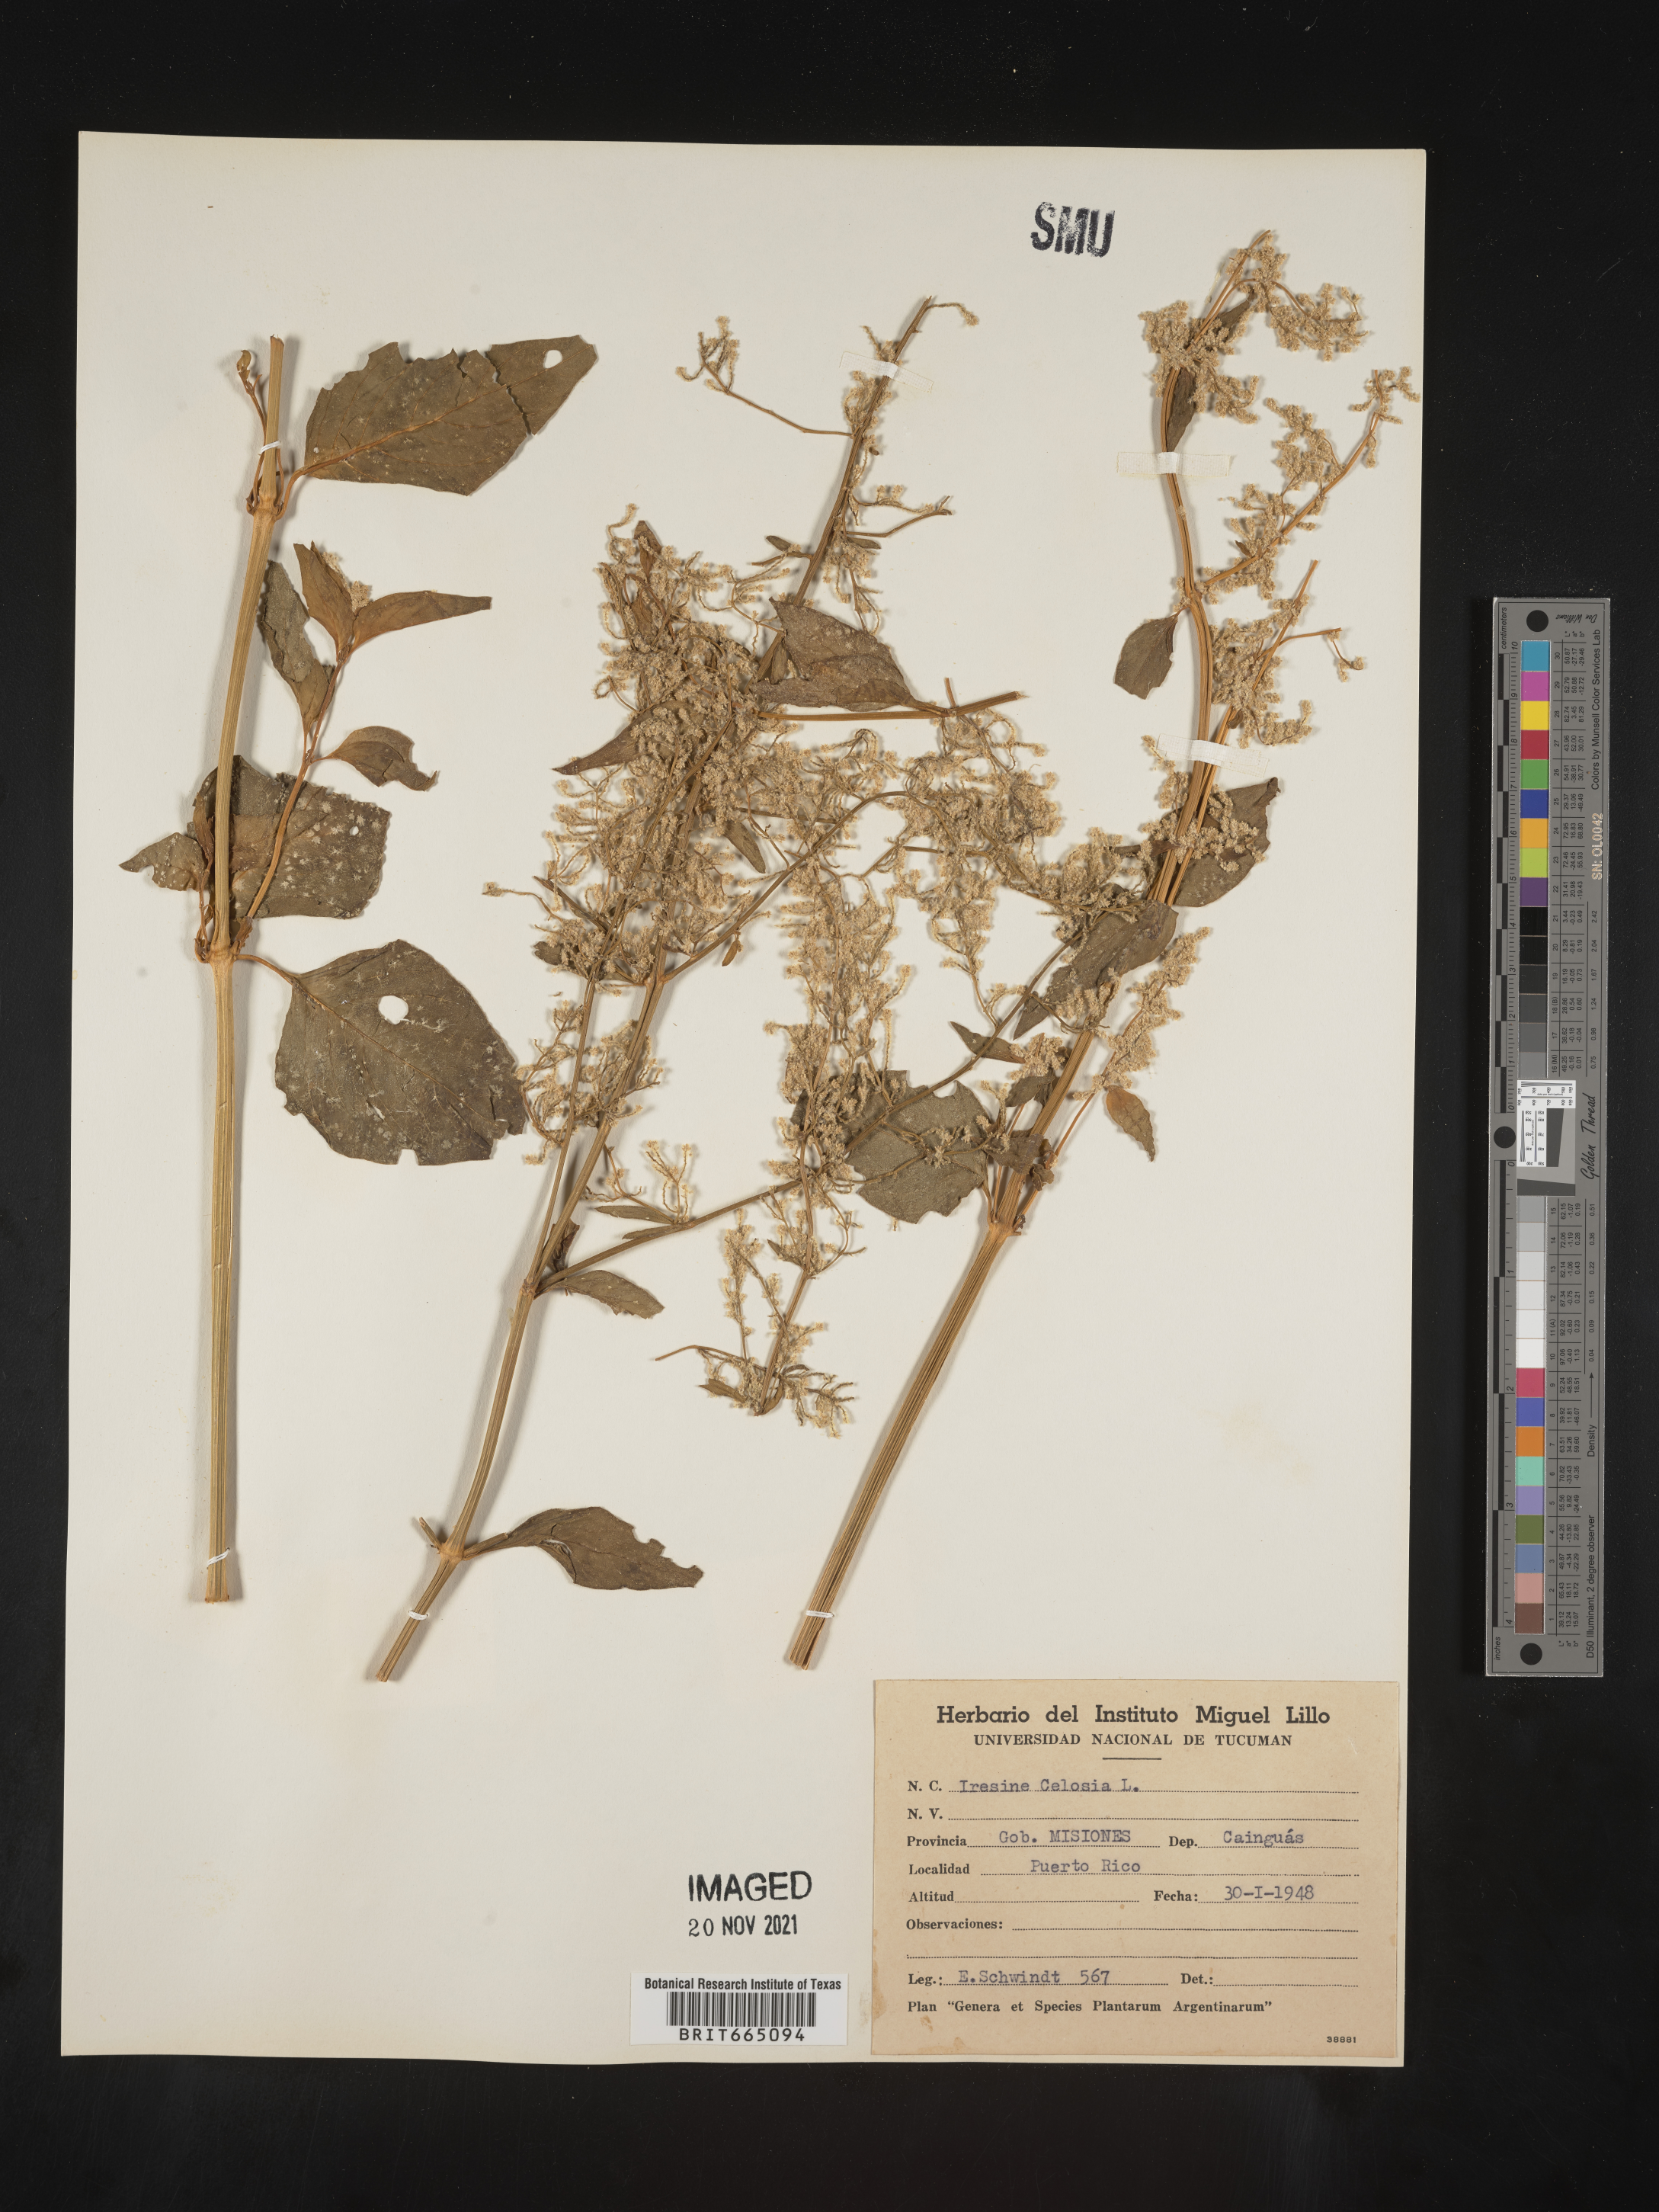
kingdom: Plantae
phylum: Tracheophyta
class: Magnoliopsida
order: Caryophyllales
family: Amaranthaceae
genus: Iresine
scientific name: Iresine
